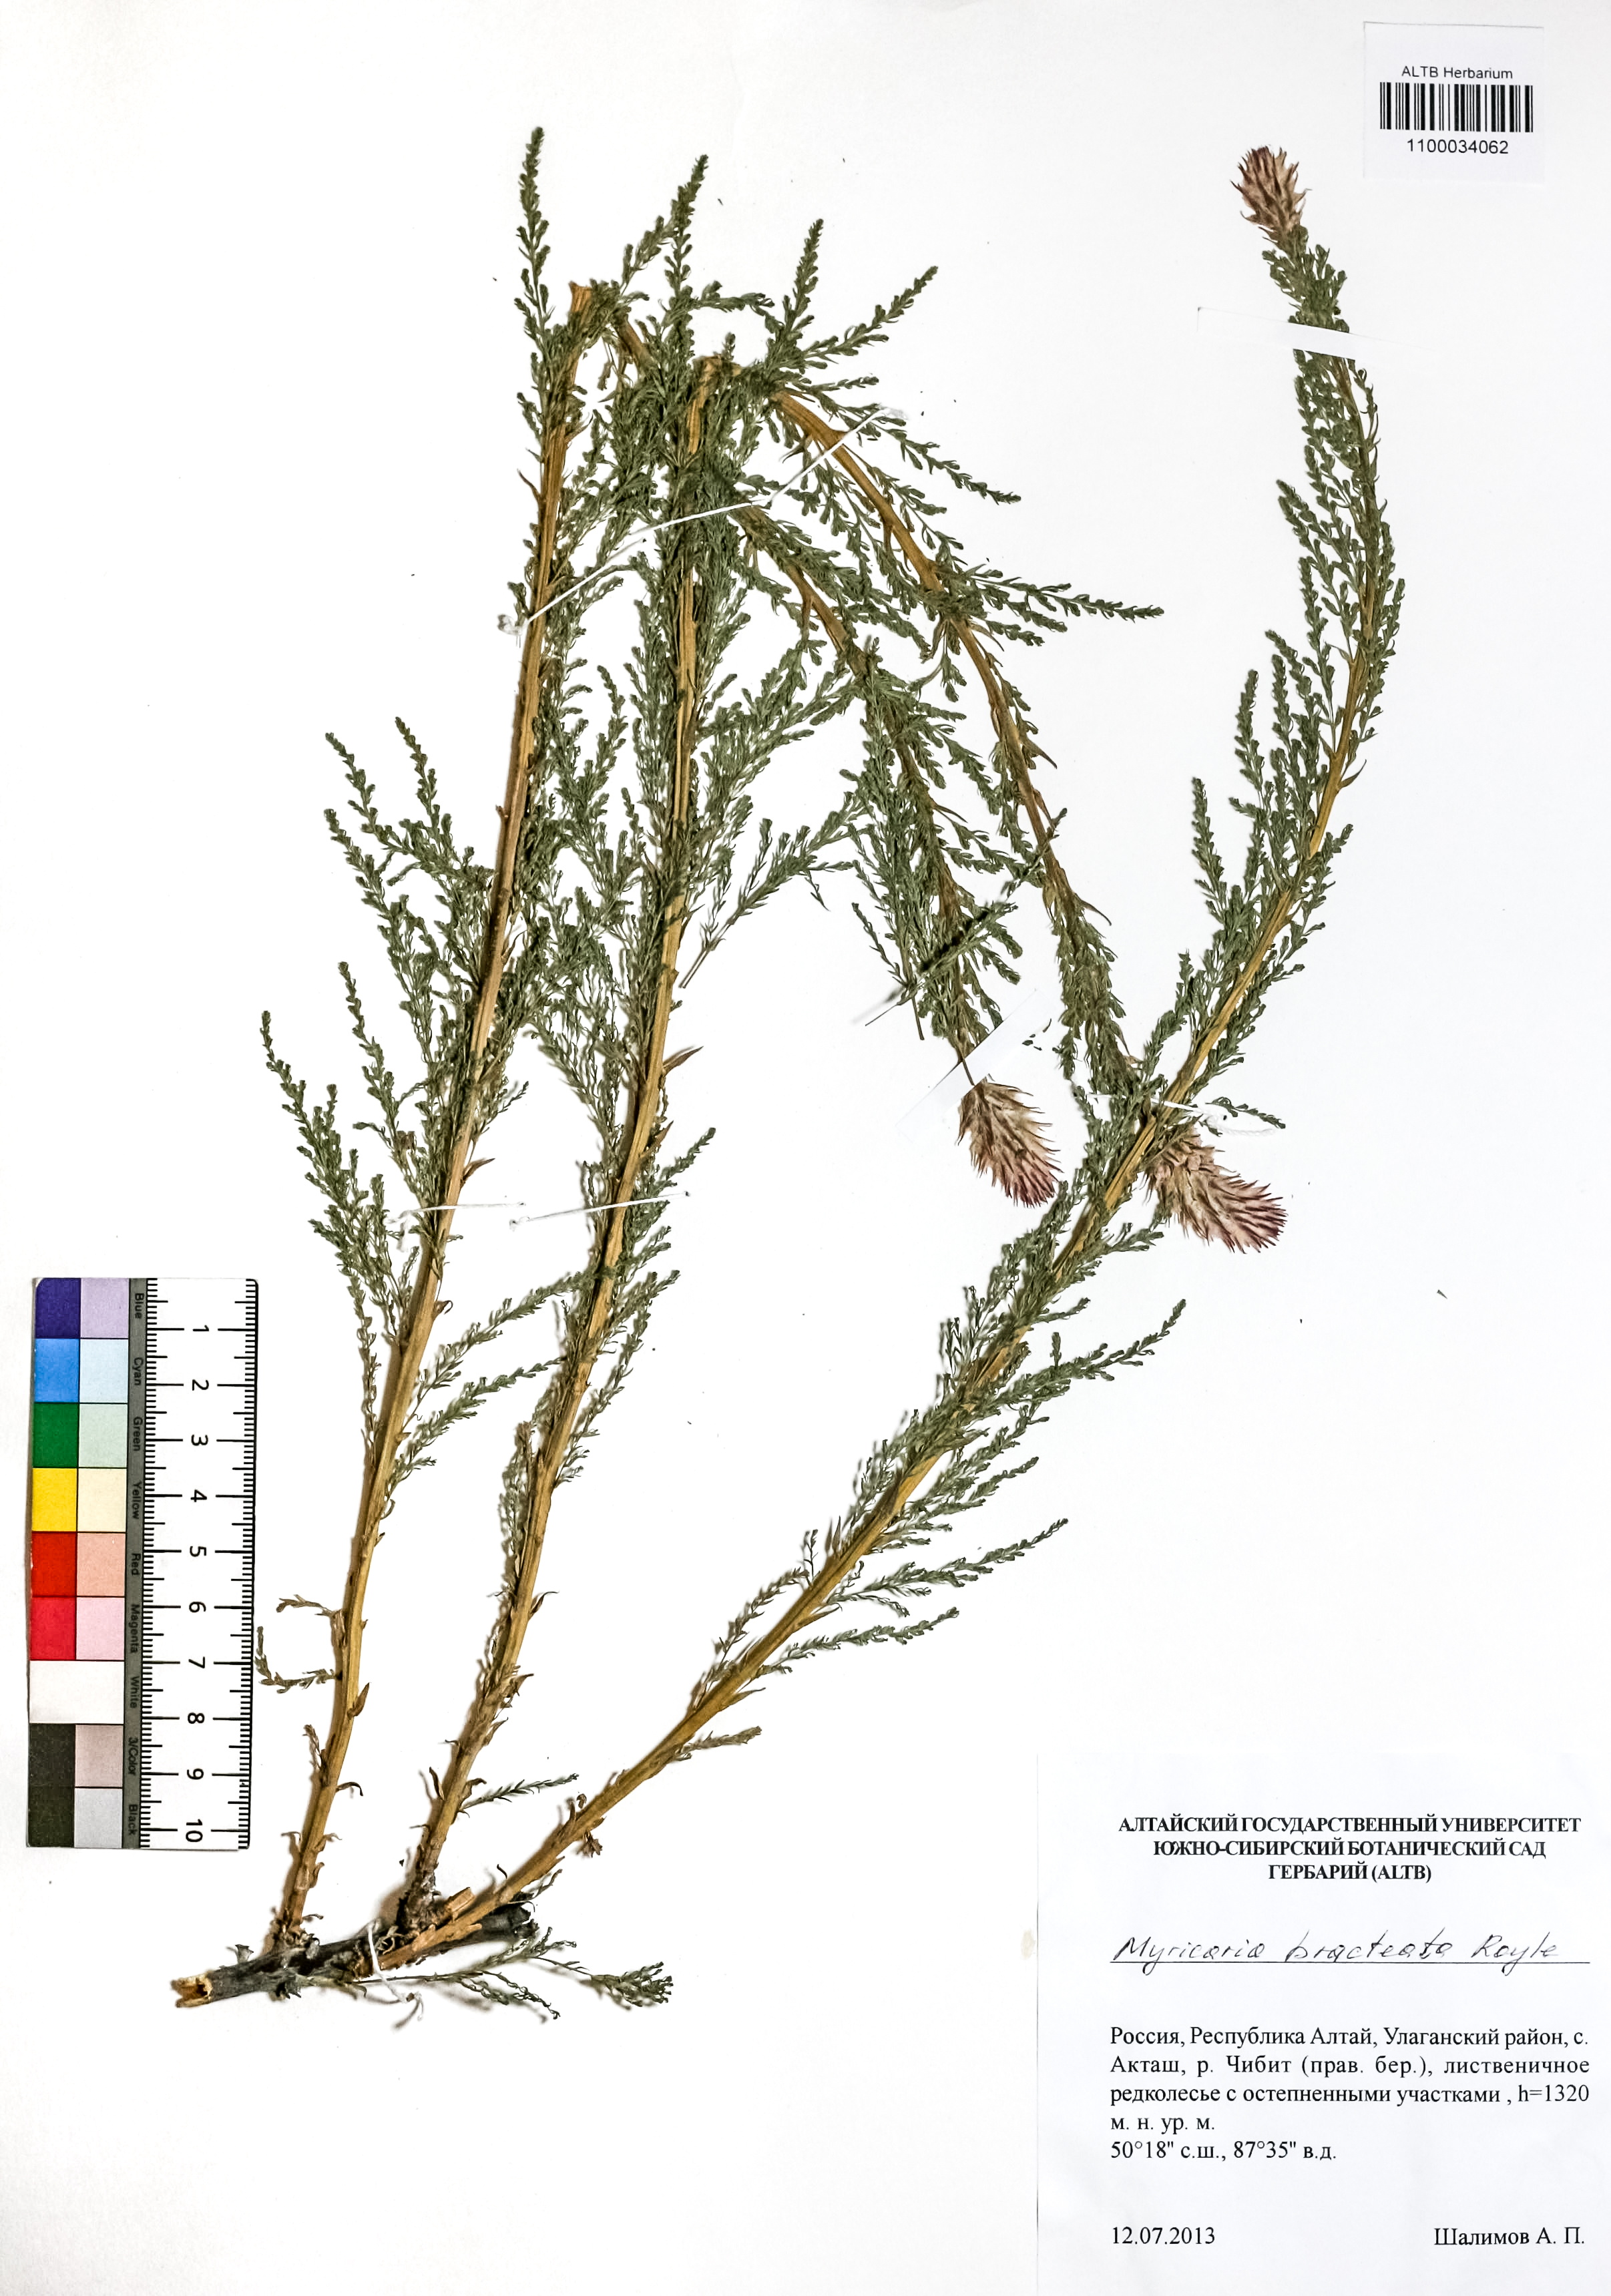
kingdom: Plantae
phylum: Tracheophyta
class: Magnoliopsida
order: Caryophyllales
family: Tamaricaceae
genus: Myricaria
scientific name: Myricaria bracteata
